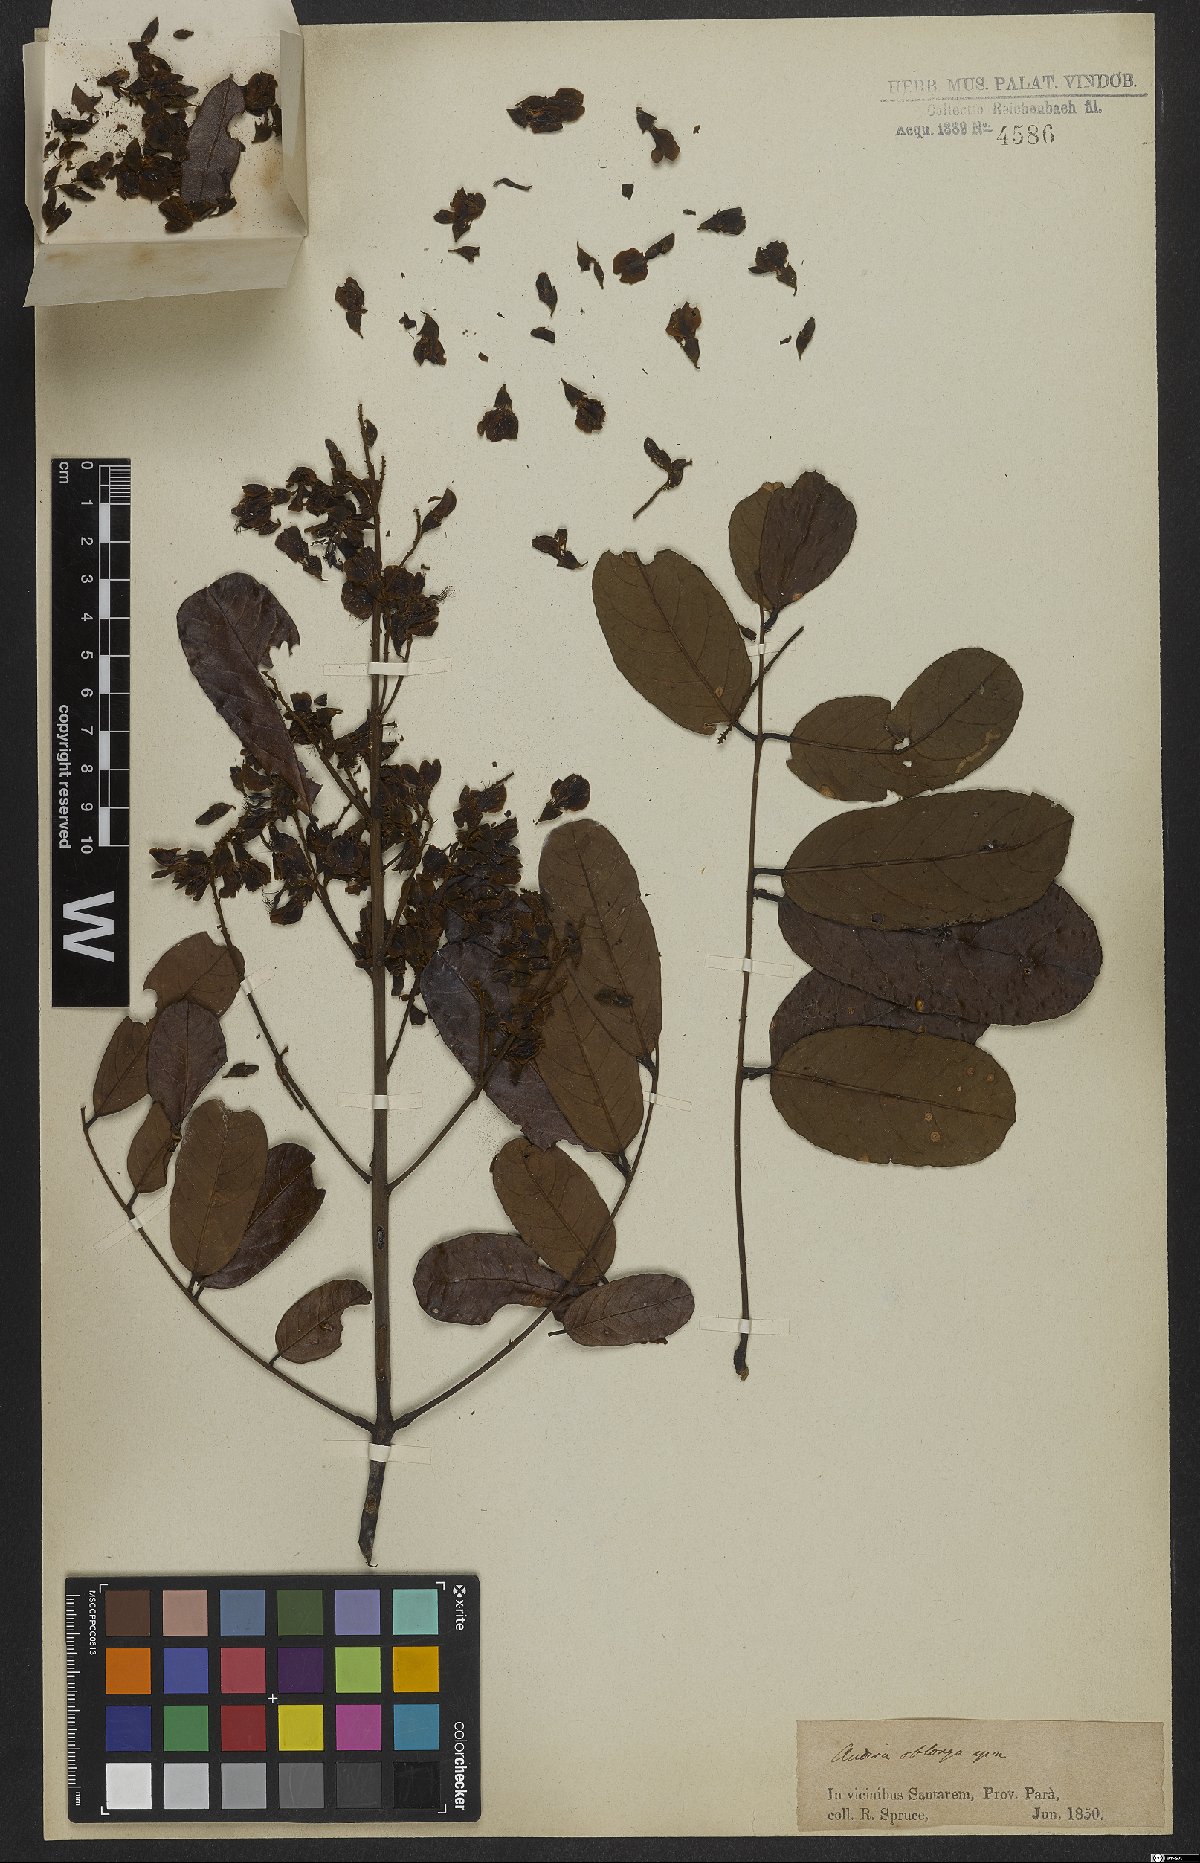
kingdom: Plantae
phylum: Tracheophyta
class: Magnoliopsida
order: Fabales
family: Fabaceae
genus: Andira
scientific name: Andira surinamensis
